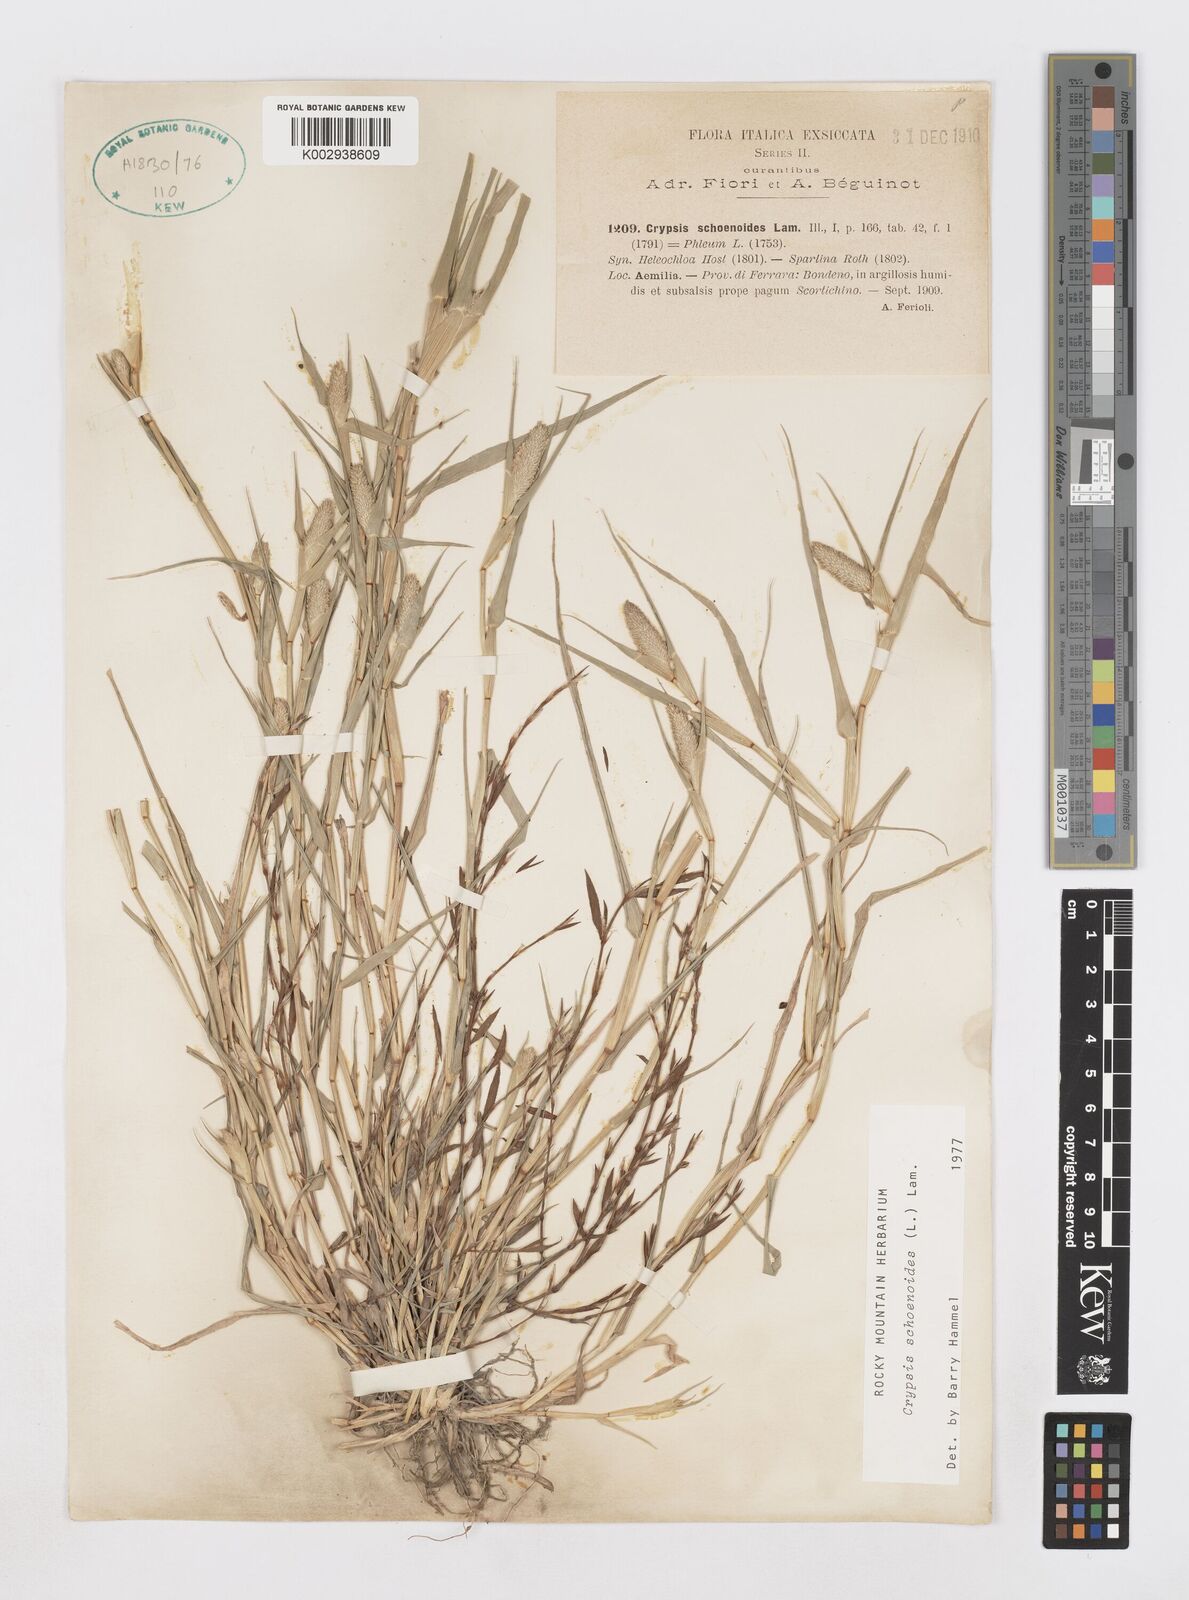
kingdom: Plantae
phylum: Tracheophyta
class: Liliopsida
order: Poales
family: Poaceae
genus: Sporobolus
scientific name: Sporobolus schoenoides
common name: Rush-like timothy
